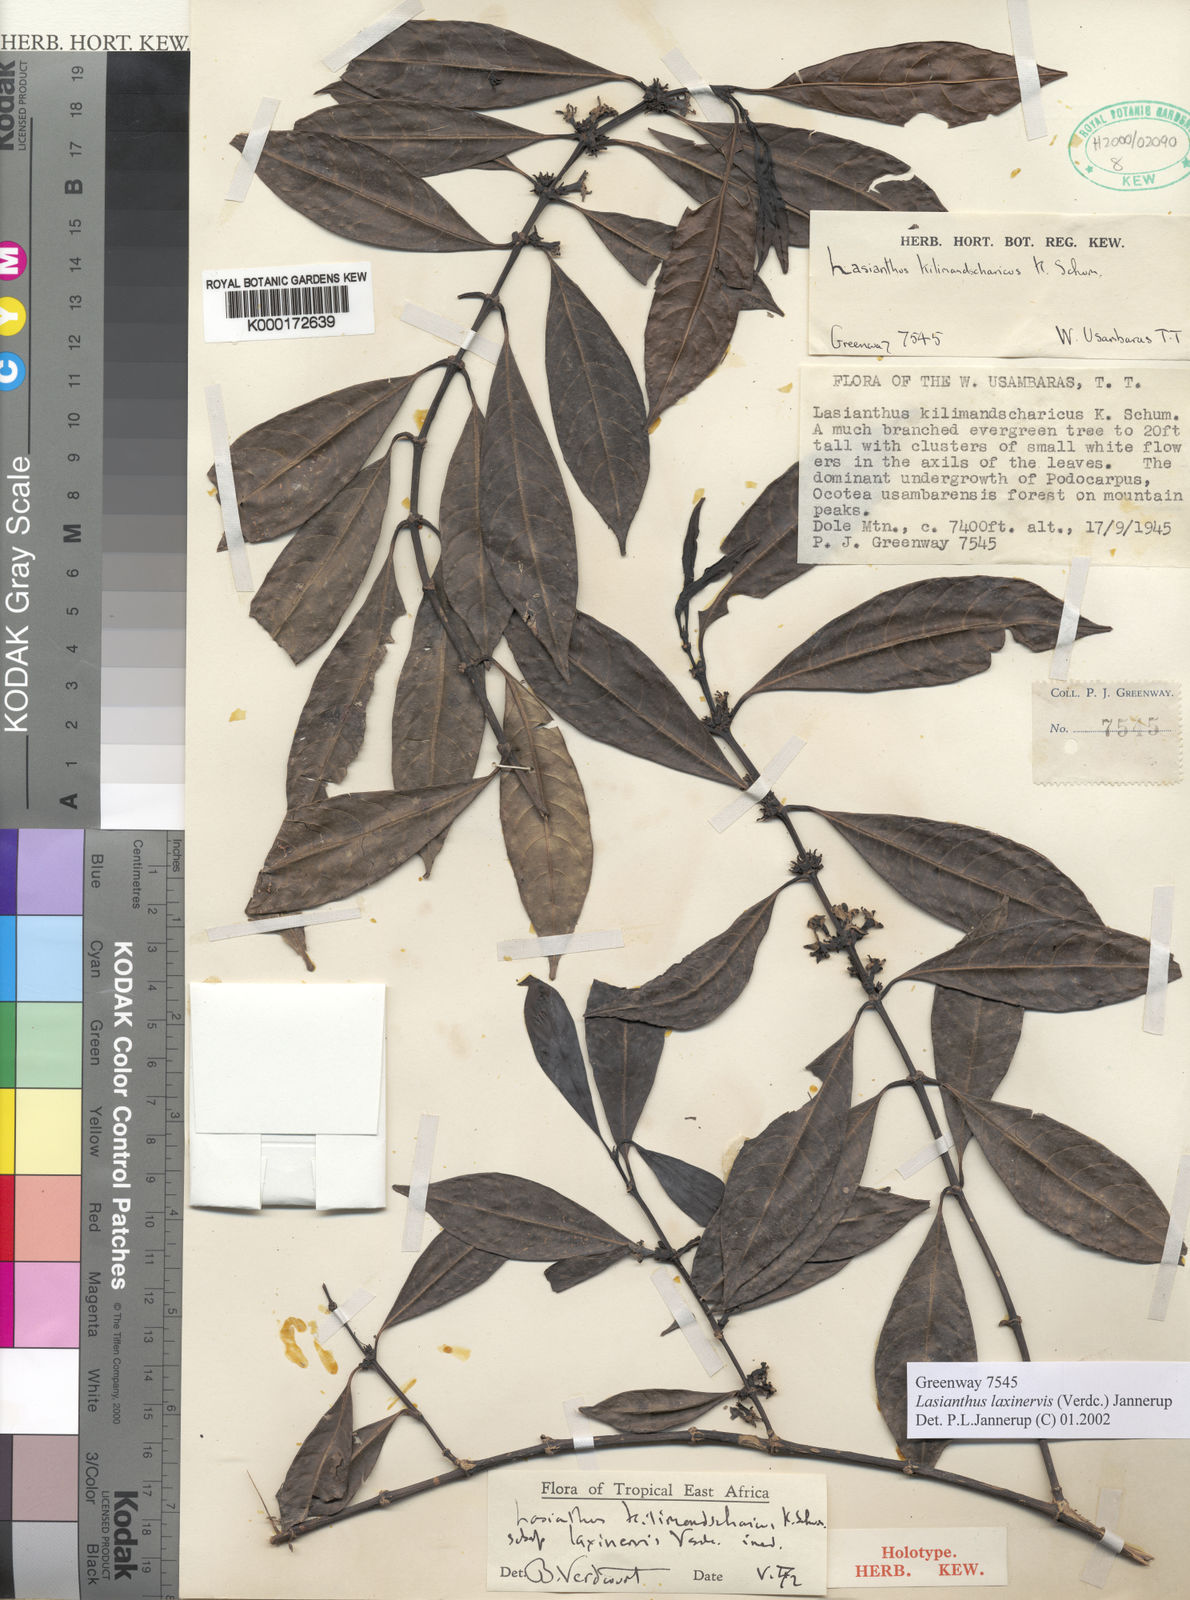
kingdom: Plantae
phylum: Tracheophyta
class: Magnoliopsida
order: Gentianales
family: Rubiaceae
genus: Lasianthus
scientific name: Lasianthus laxinervis
